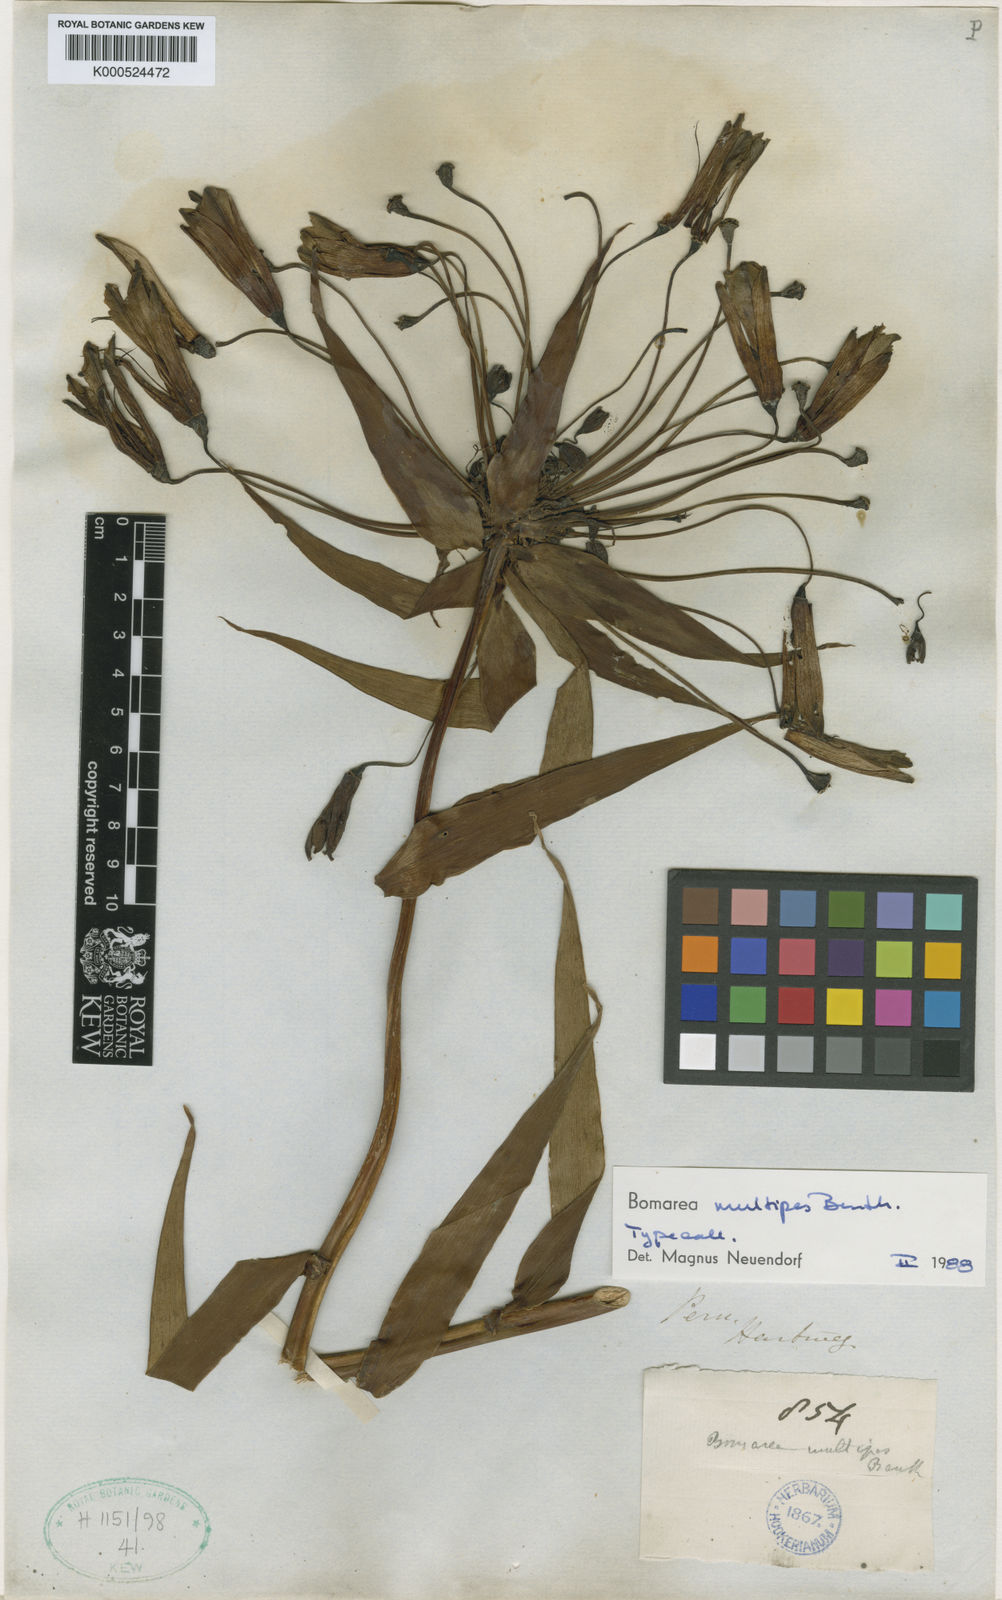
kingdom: Plantae
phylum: Tracheophyta
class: Liliopsida
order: Liliales
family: Alstroemeriaceae
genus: Bomarea
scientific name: Bomarea multipes
